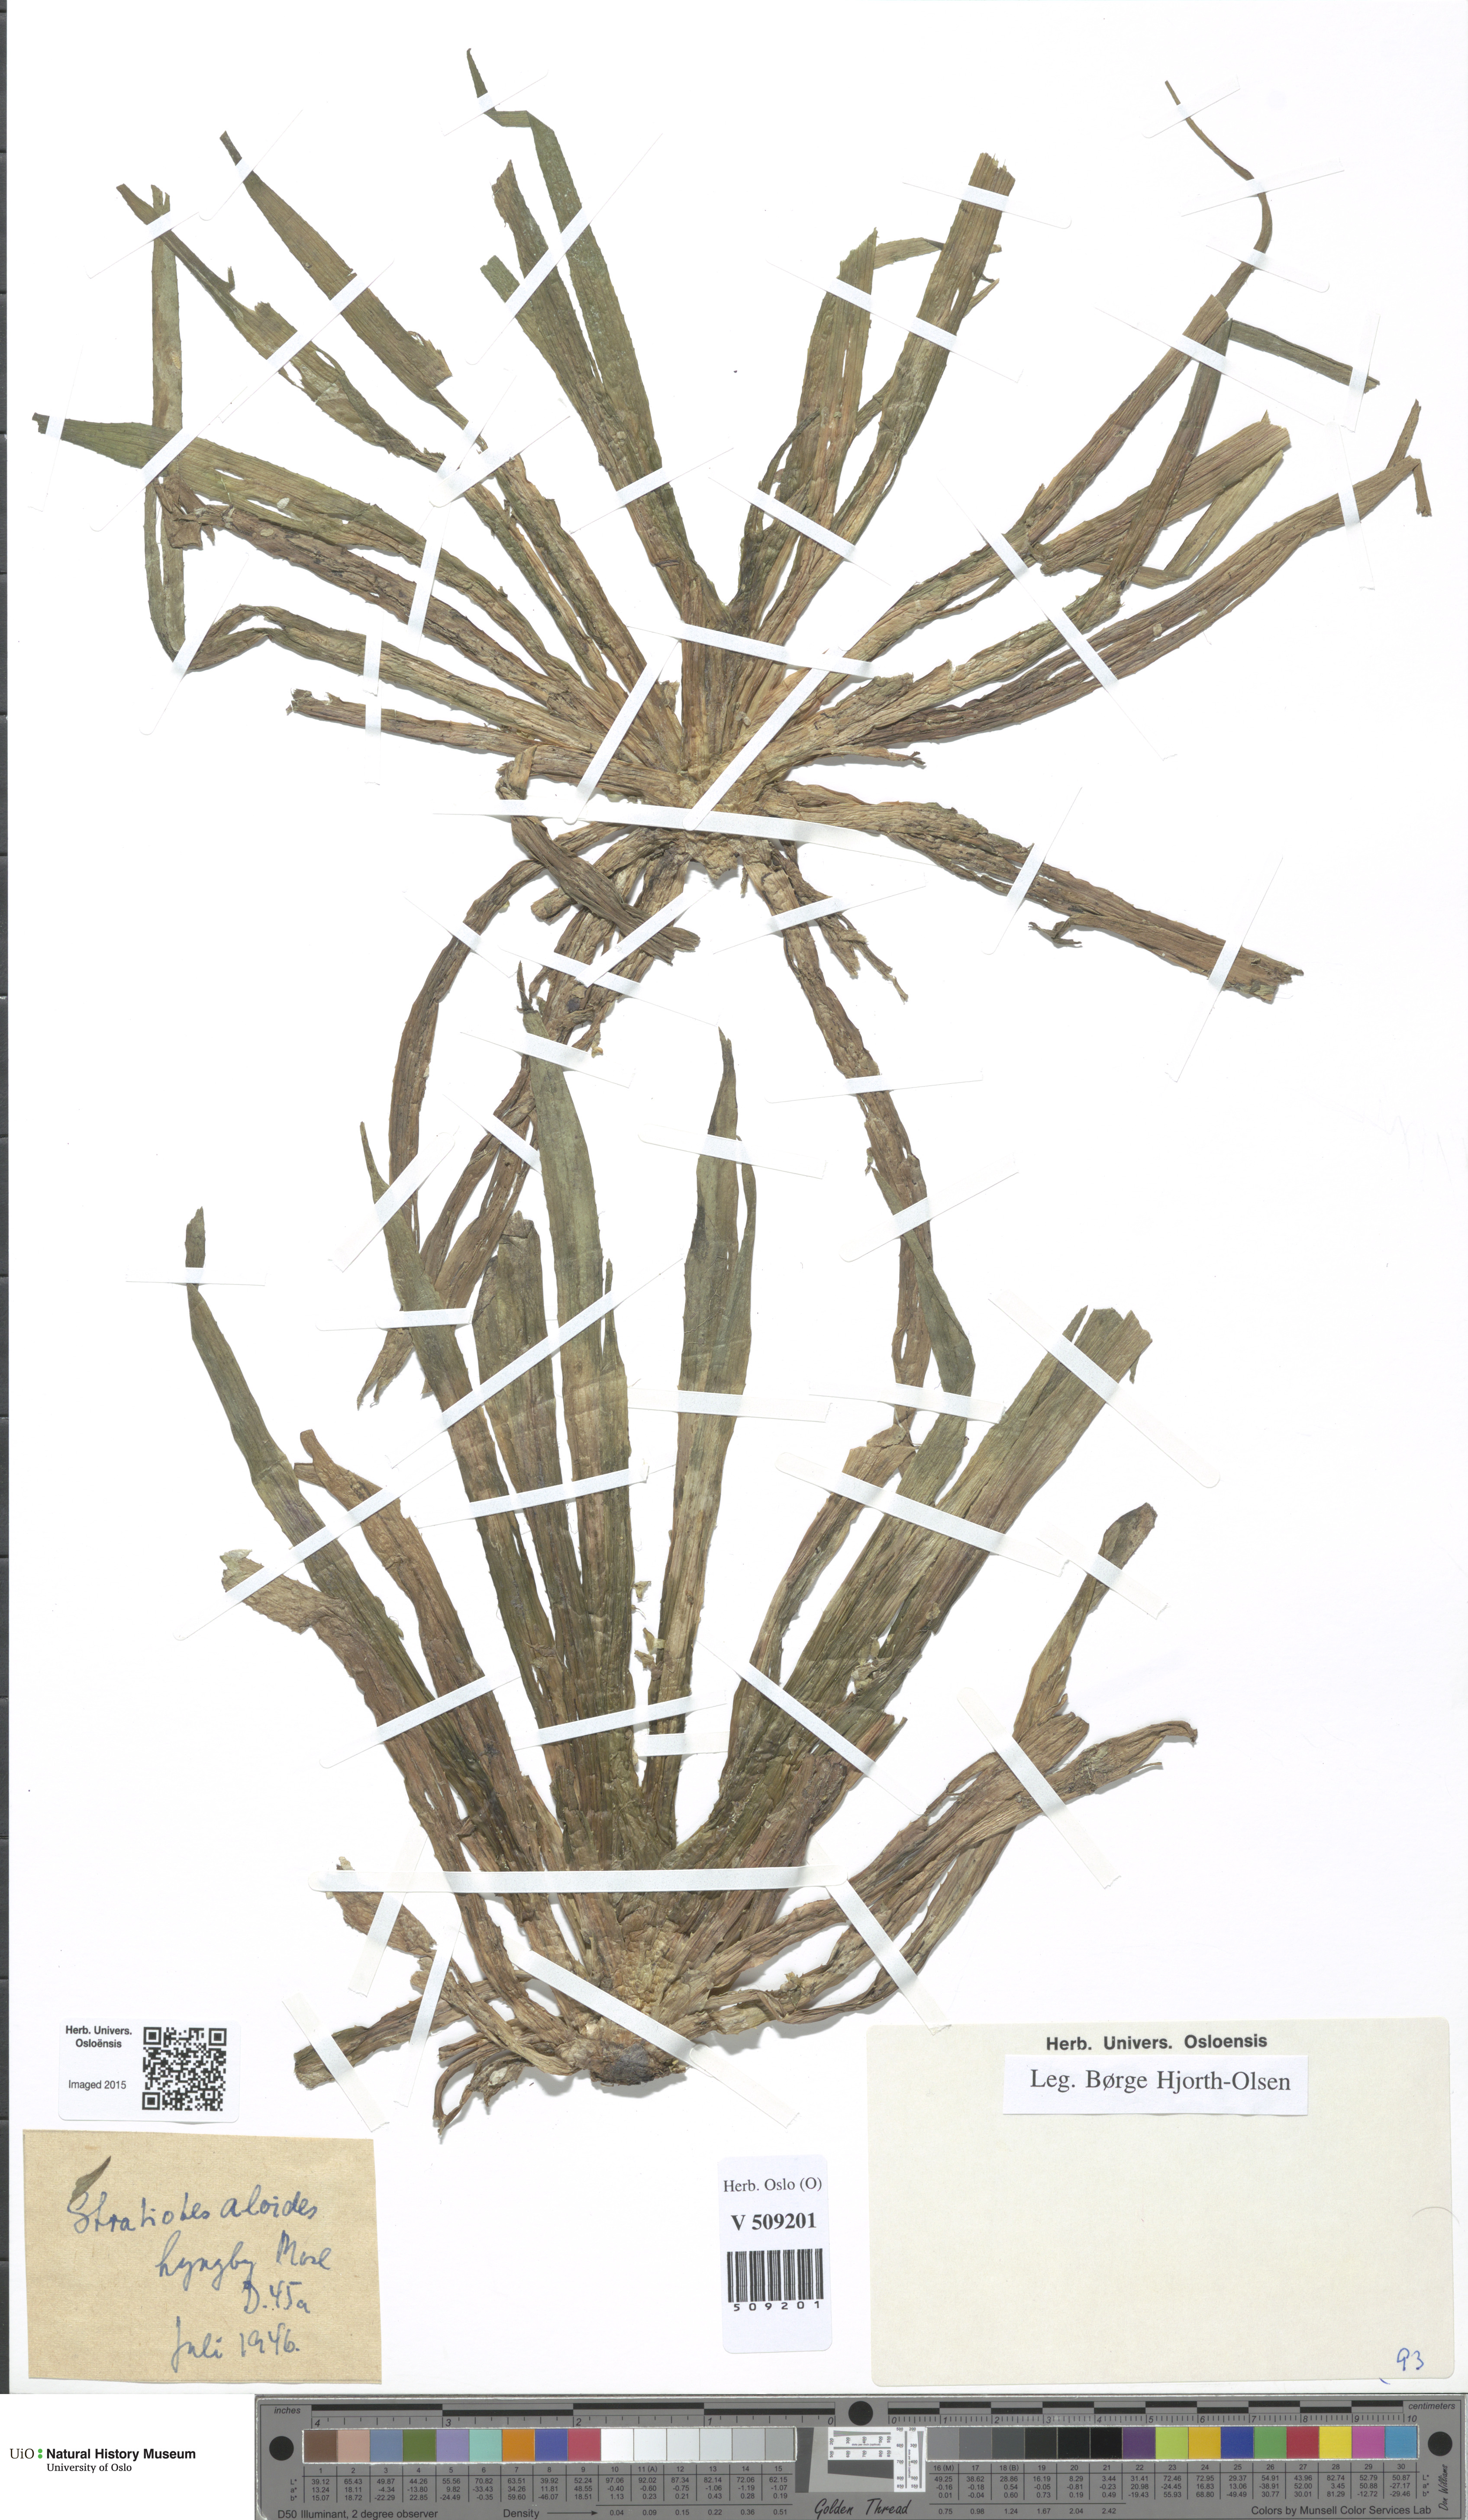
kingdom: Plantae
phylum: Tracheophyta
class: Liliopsida
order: Alismatales
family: Hydrocharitaceae
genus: Stratiotes
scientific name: Stratiotes aloides
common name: Water-soldier
